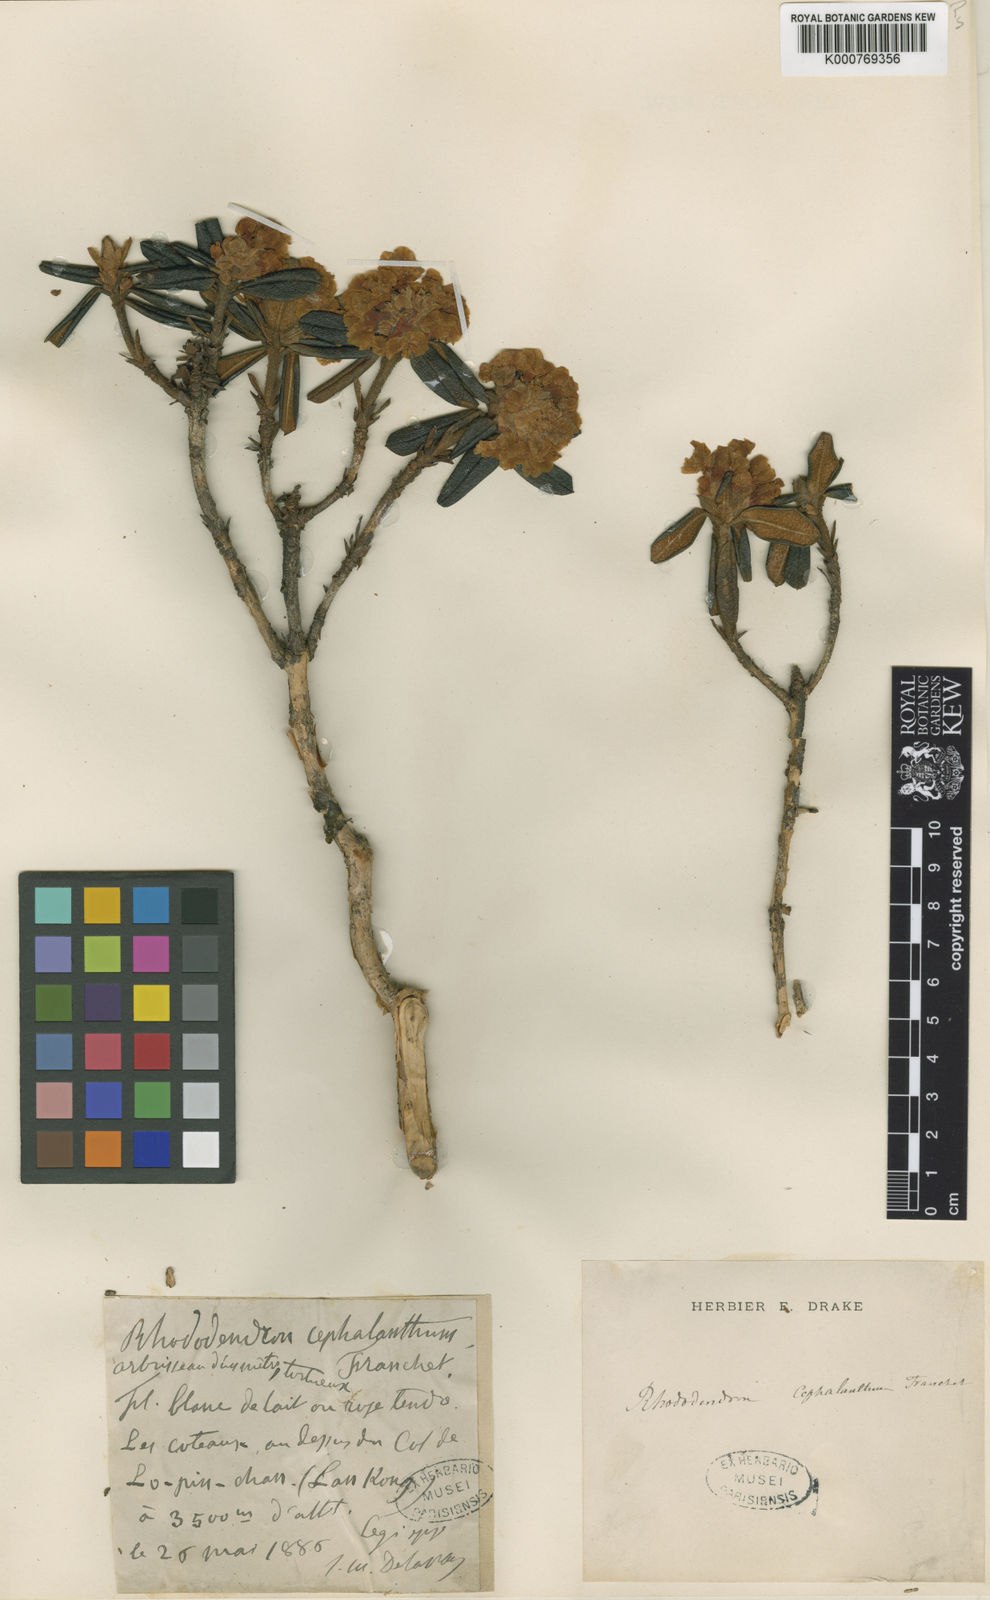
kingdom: Plantae
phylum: Tracheophyta
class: Magnoliopsida
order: Ericales
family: Ericaceae
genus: Rhododendron
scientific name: Rhododendron cephalanthum
